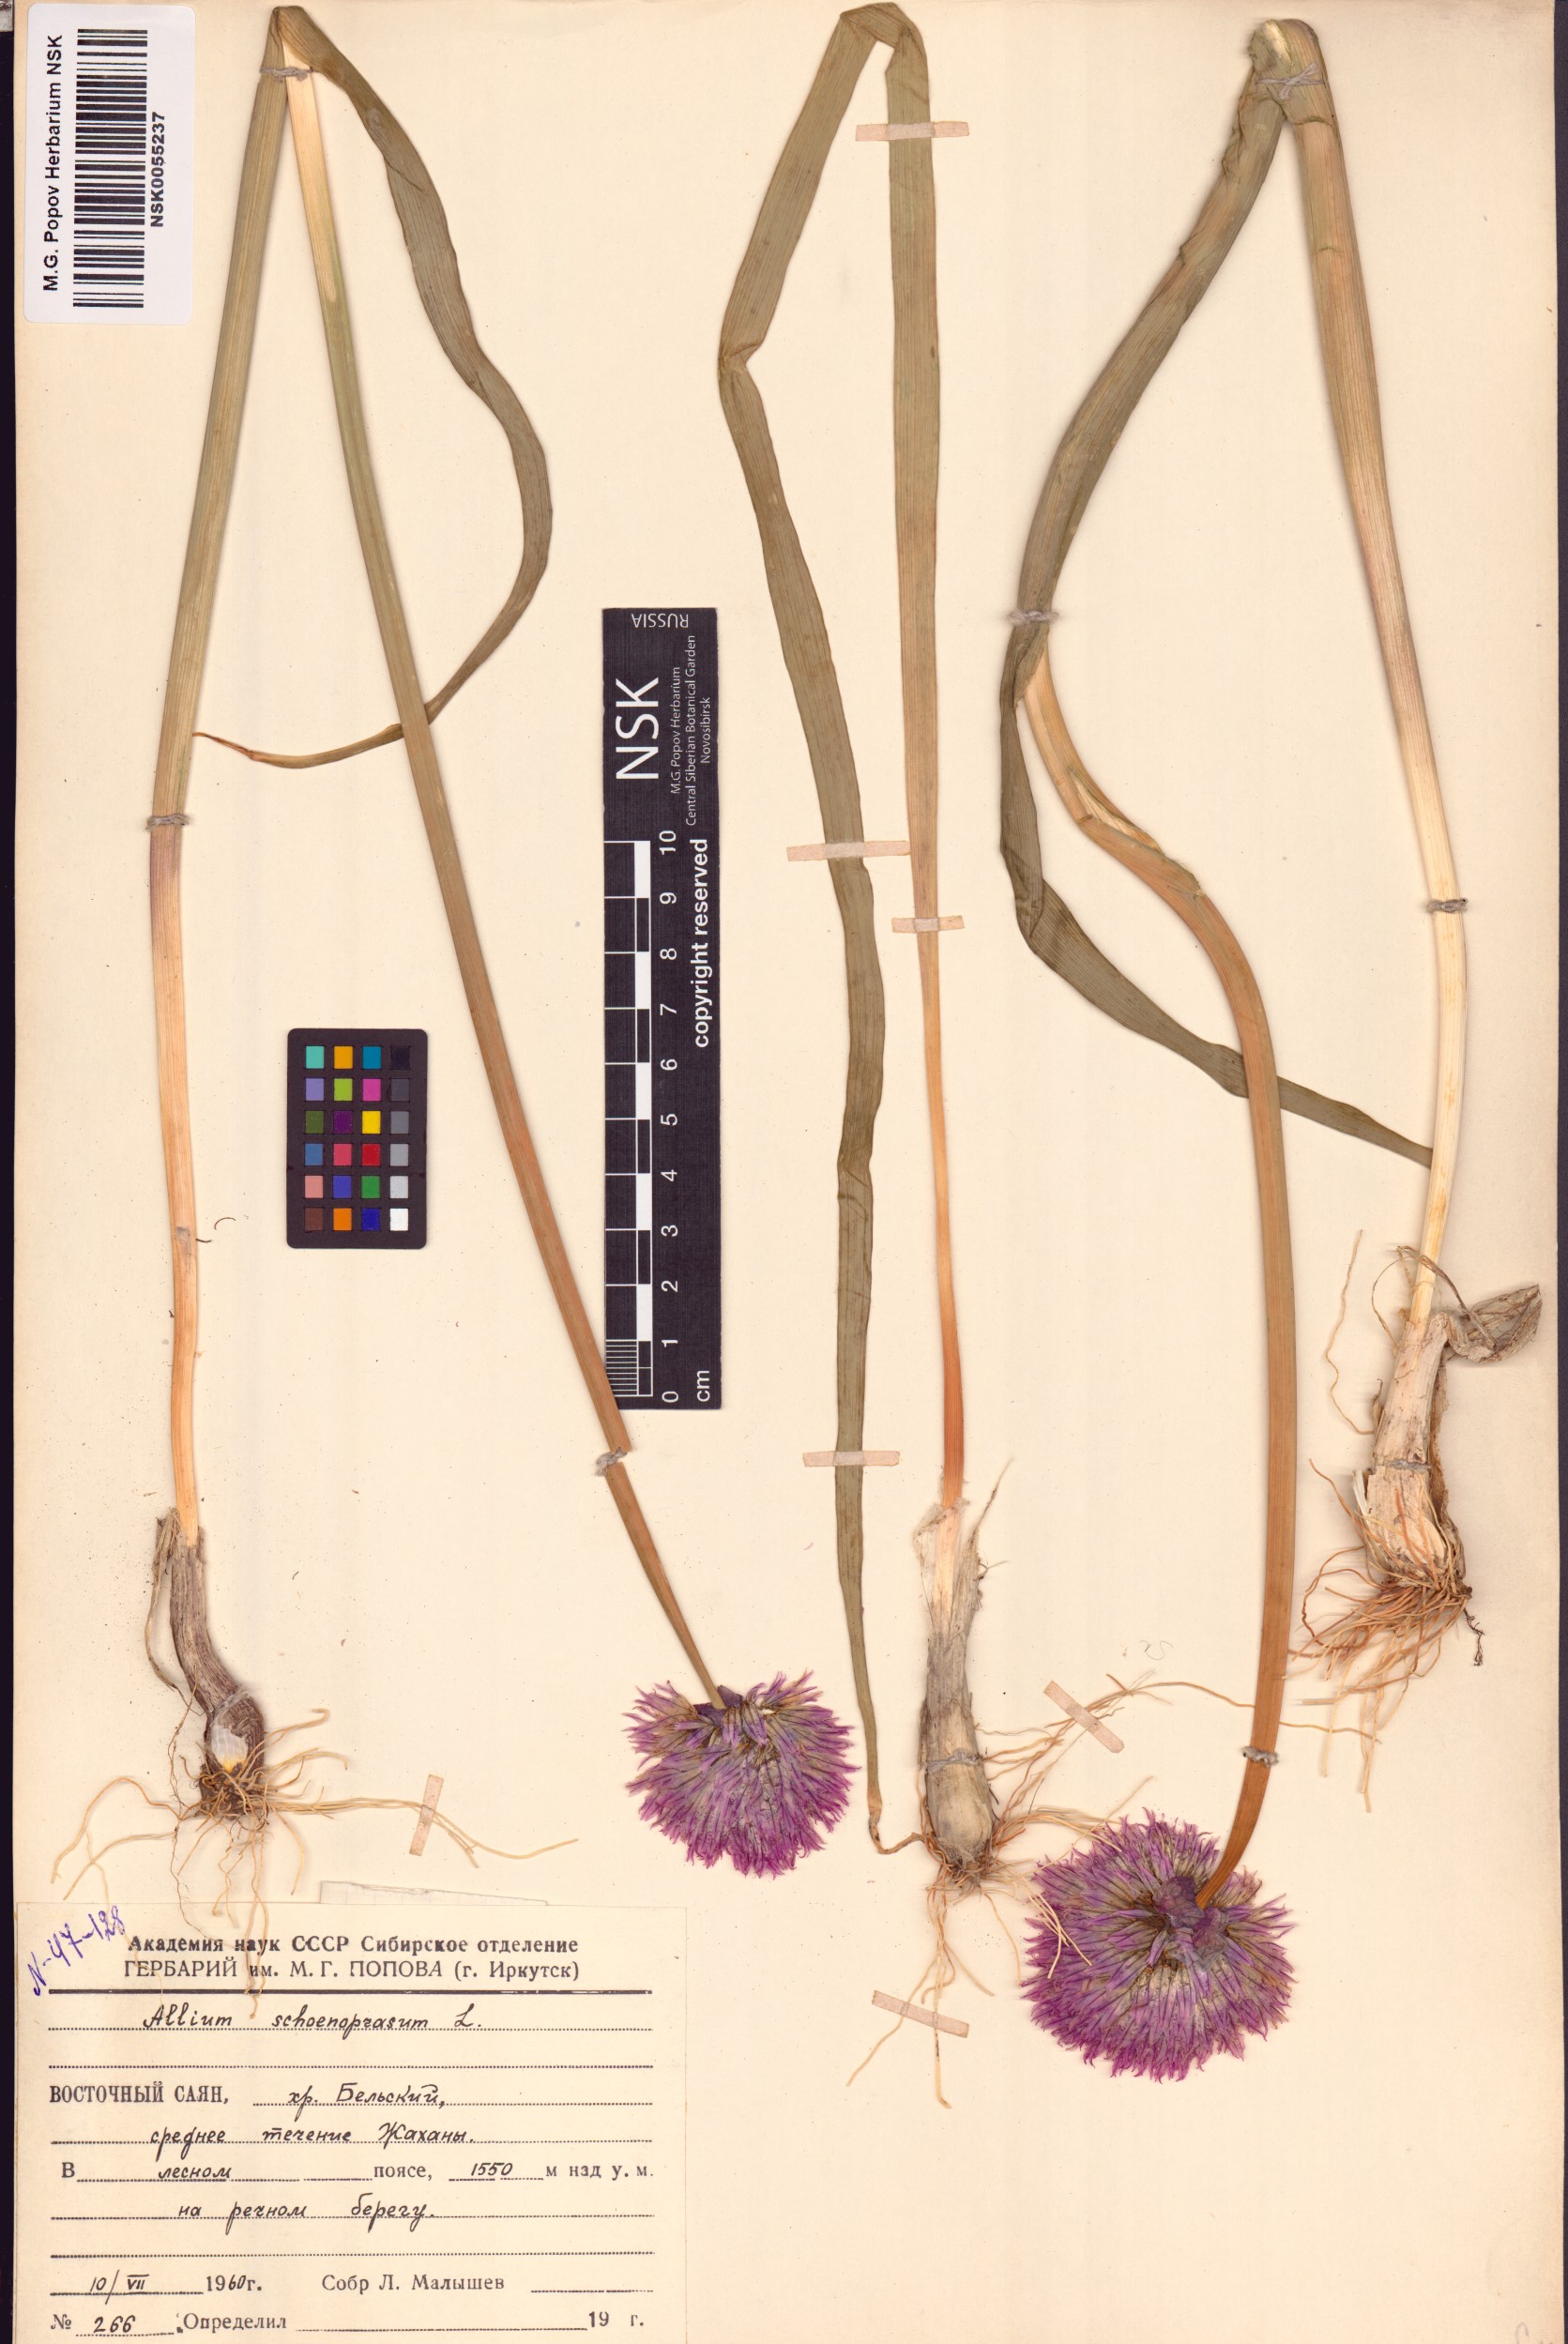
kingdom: Plantae
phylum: Tracheophyta
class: Liliopsida
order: Asparagales
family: Amaryllidaceae
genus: Allium
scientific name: Allium schoenoprasum
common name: Chives
